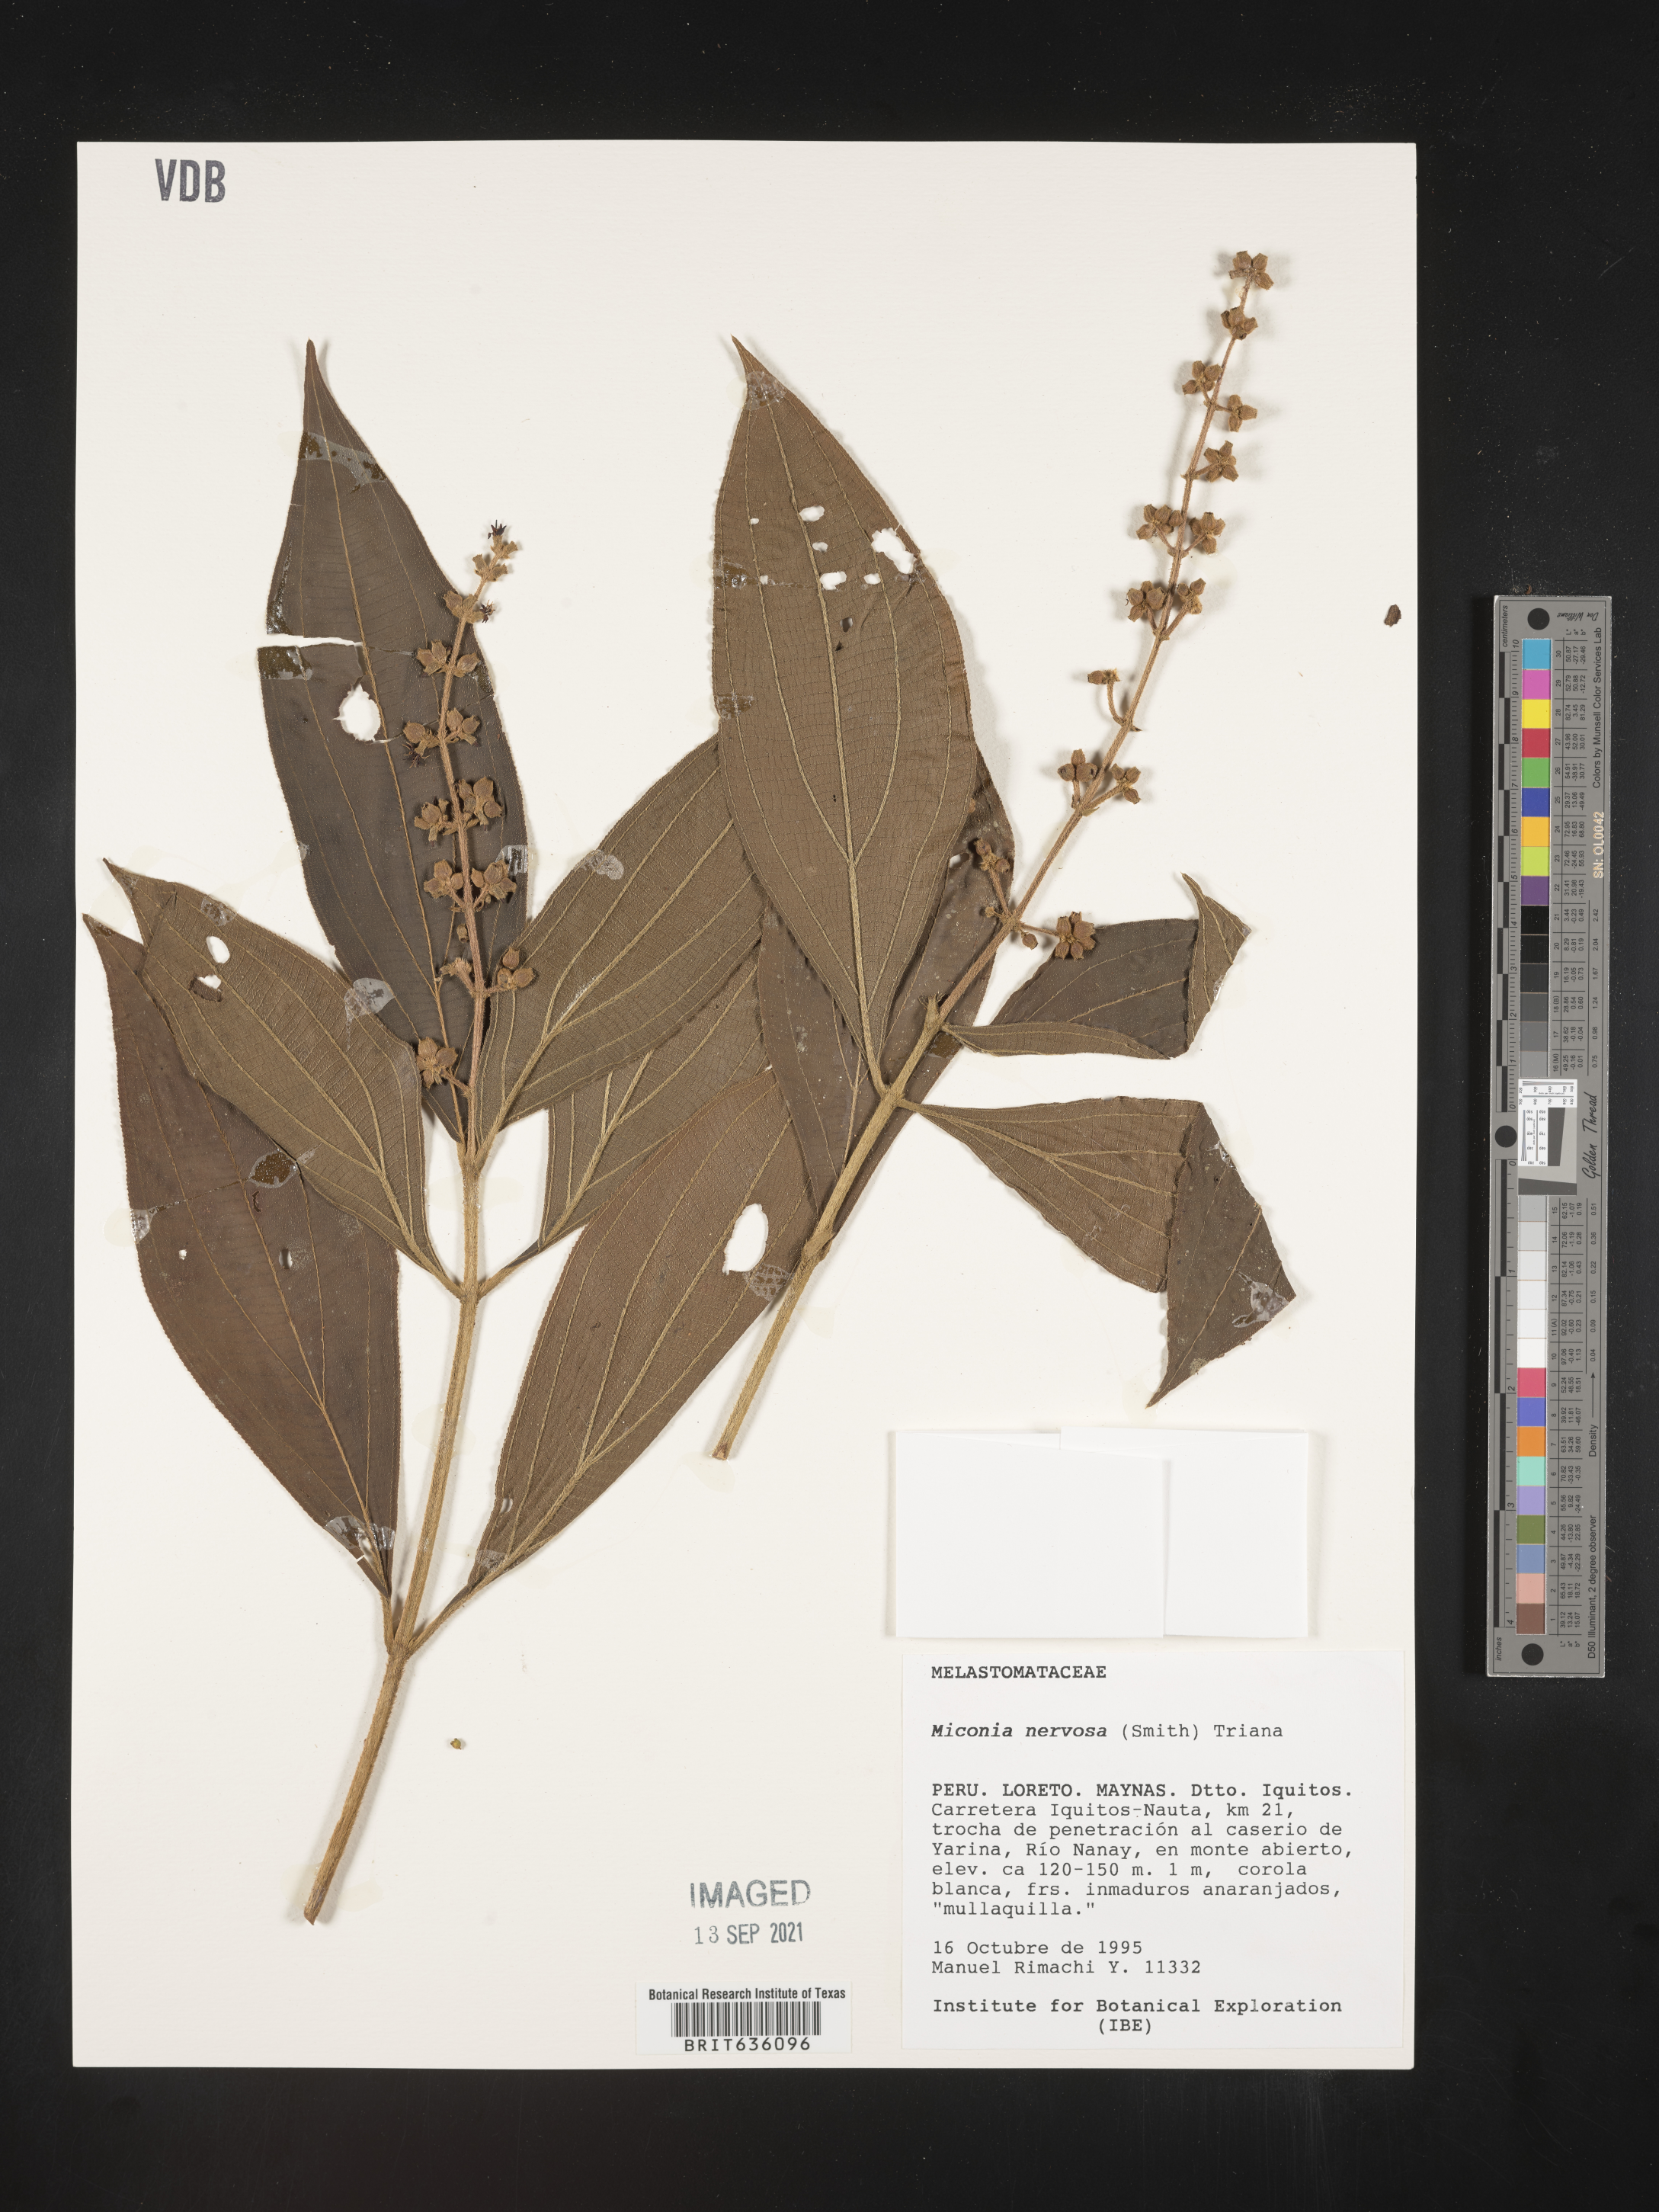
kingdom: Plantae
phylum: Tracheophyta
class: Magnoliopsida
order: Myrtales
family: Melastomataceae
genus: Miconia
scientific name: Miconia
